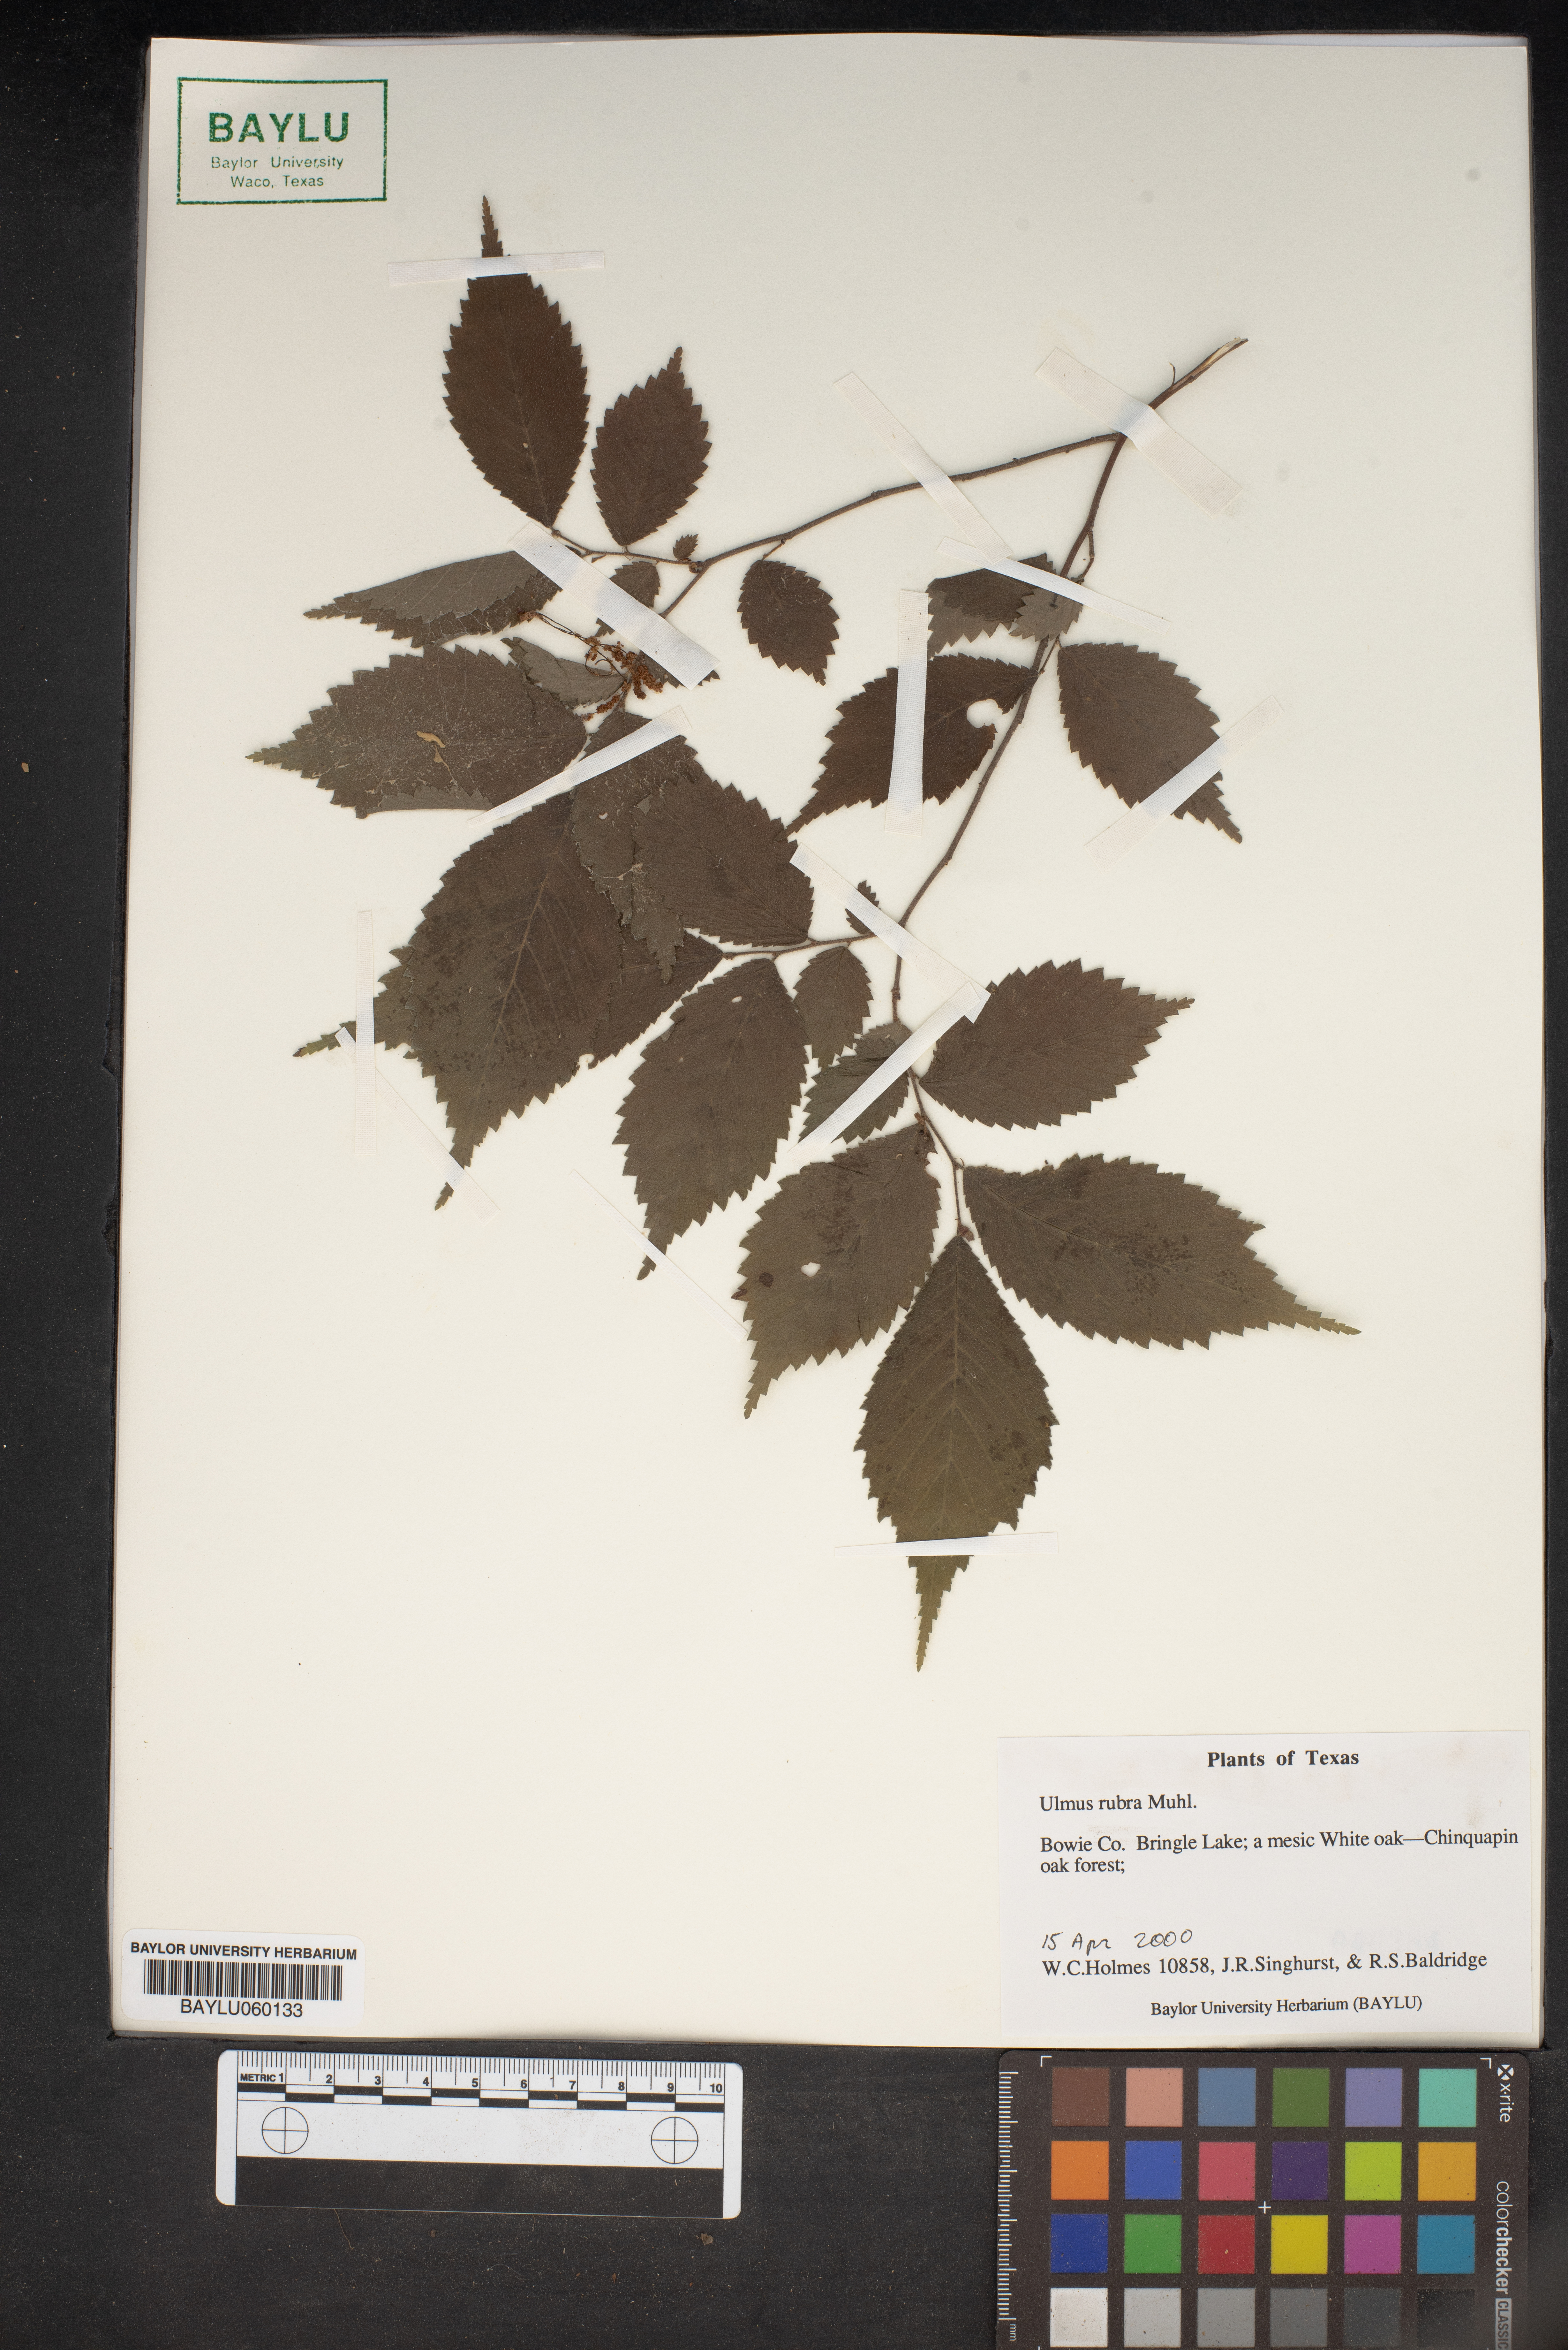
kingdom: Plantae
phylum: Tracheophyta
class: Magnoliopsida
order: Rosales
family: Ulmaceae
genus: Ulmus
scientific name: Ulmus rubra
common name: Slippery elm
